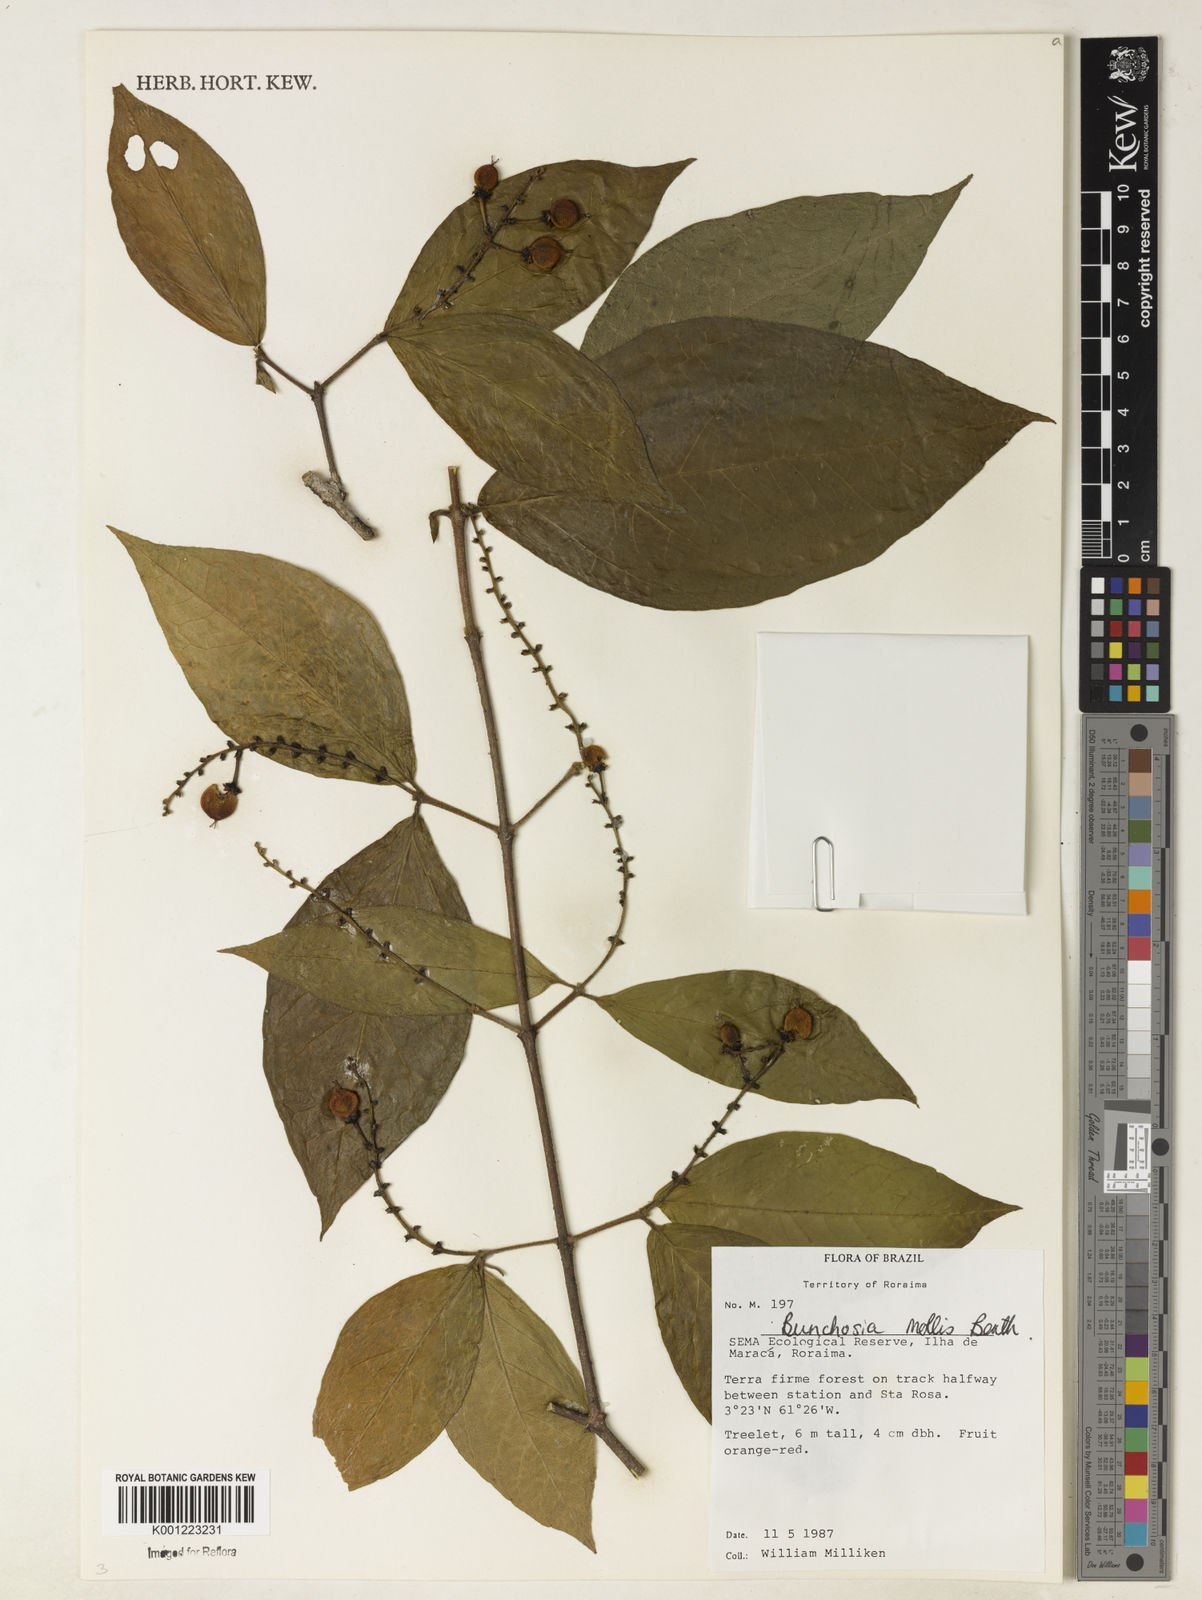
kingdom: Plantae
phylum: Tracheophyta
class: Magnoliopsida
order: Malpighiales
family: Malpighiaceae
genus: Bunchosia
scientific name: Bunchosia mollis
